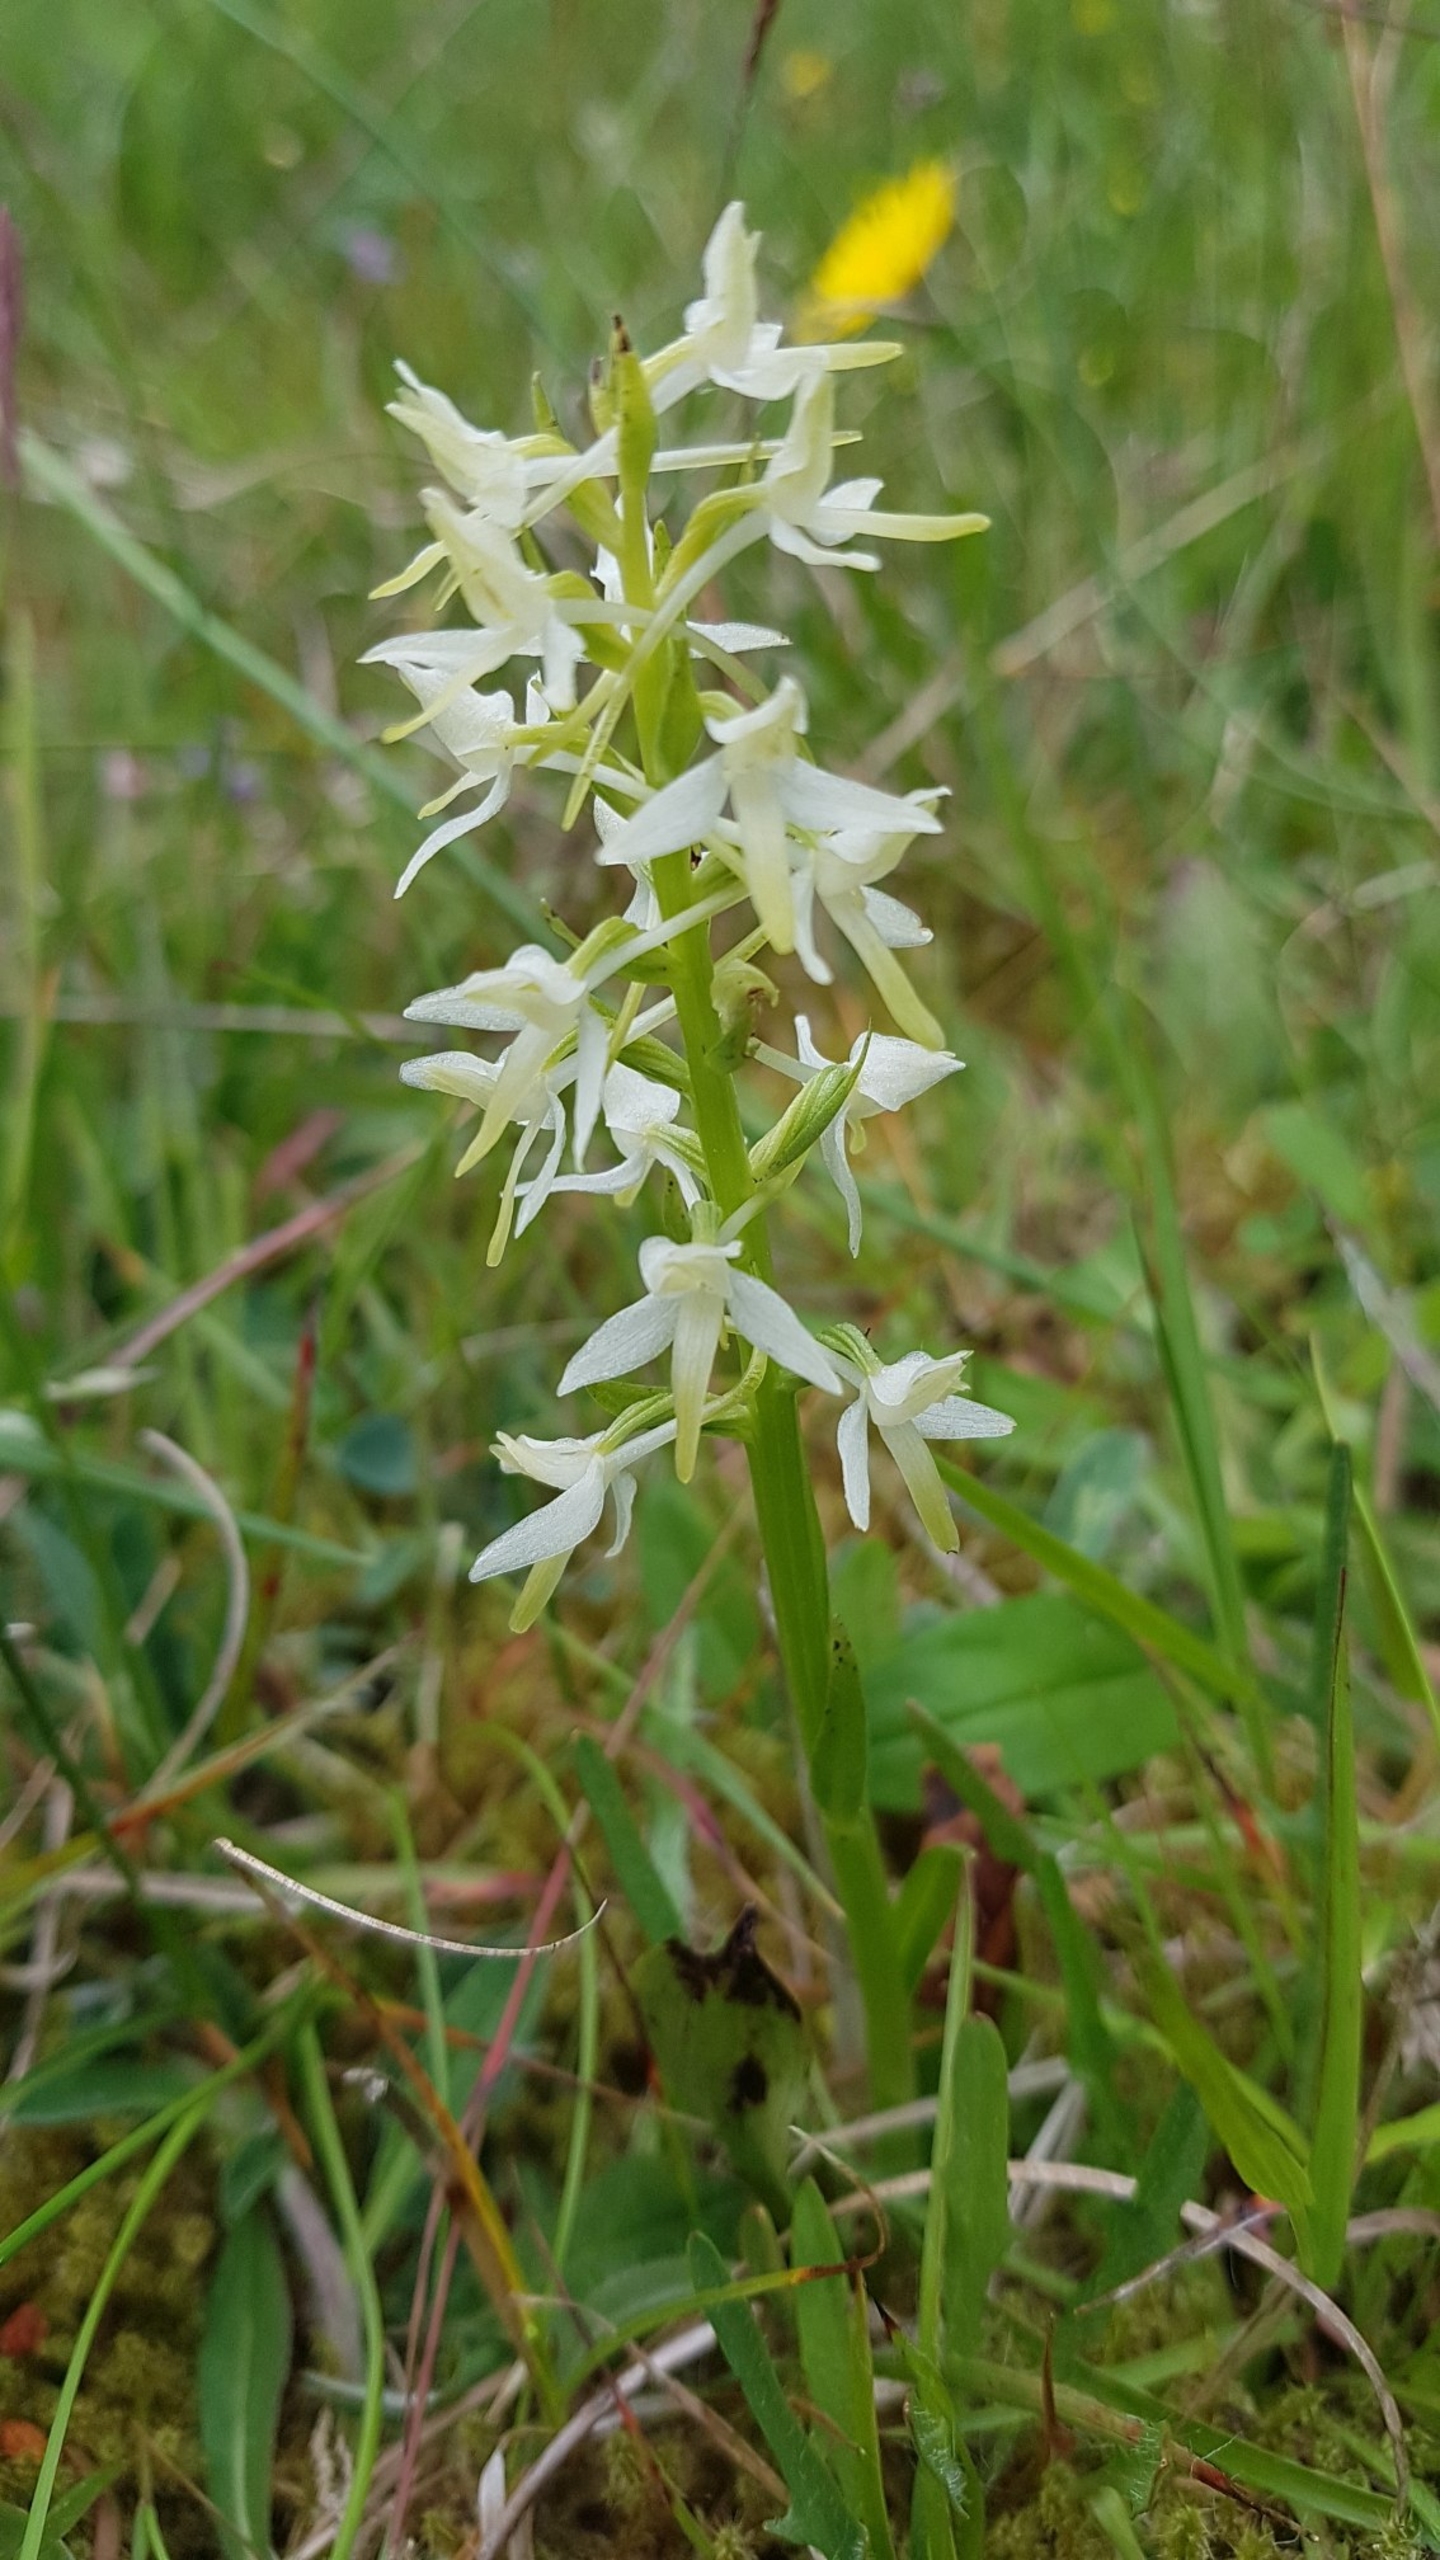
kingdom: Plantae
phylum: Tracheophyta
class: Liliopsida
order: Asparagales
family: Orchidaceae
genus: Platanthera
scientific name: Platanthera bifolia
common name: Bakke-gøgelilje
